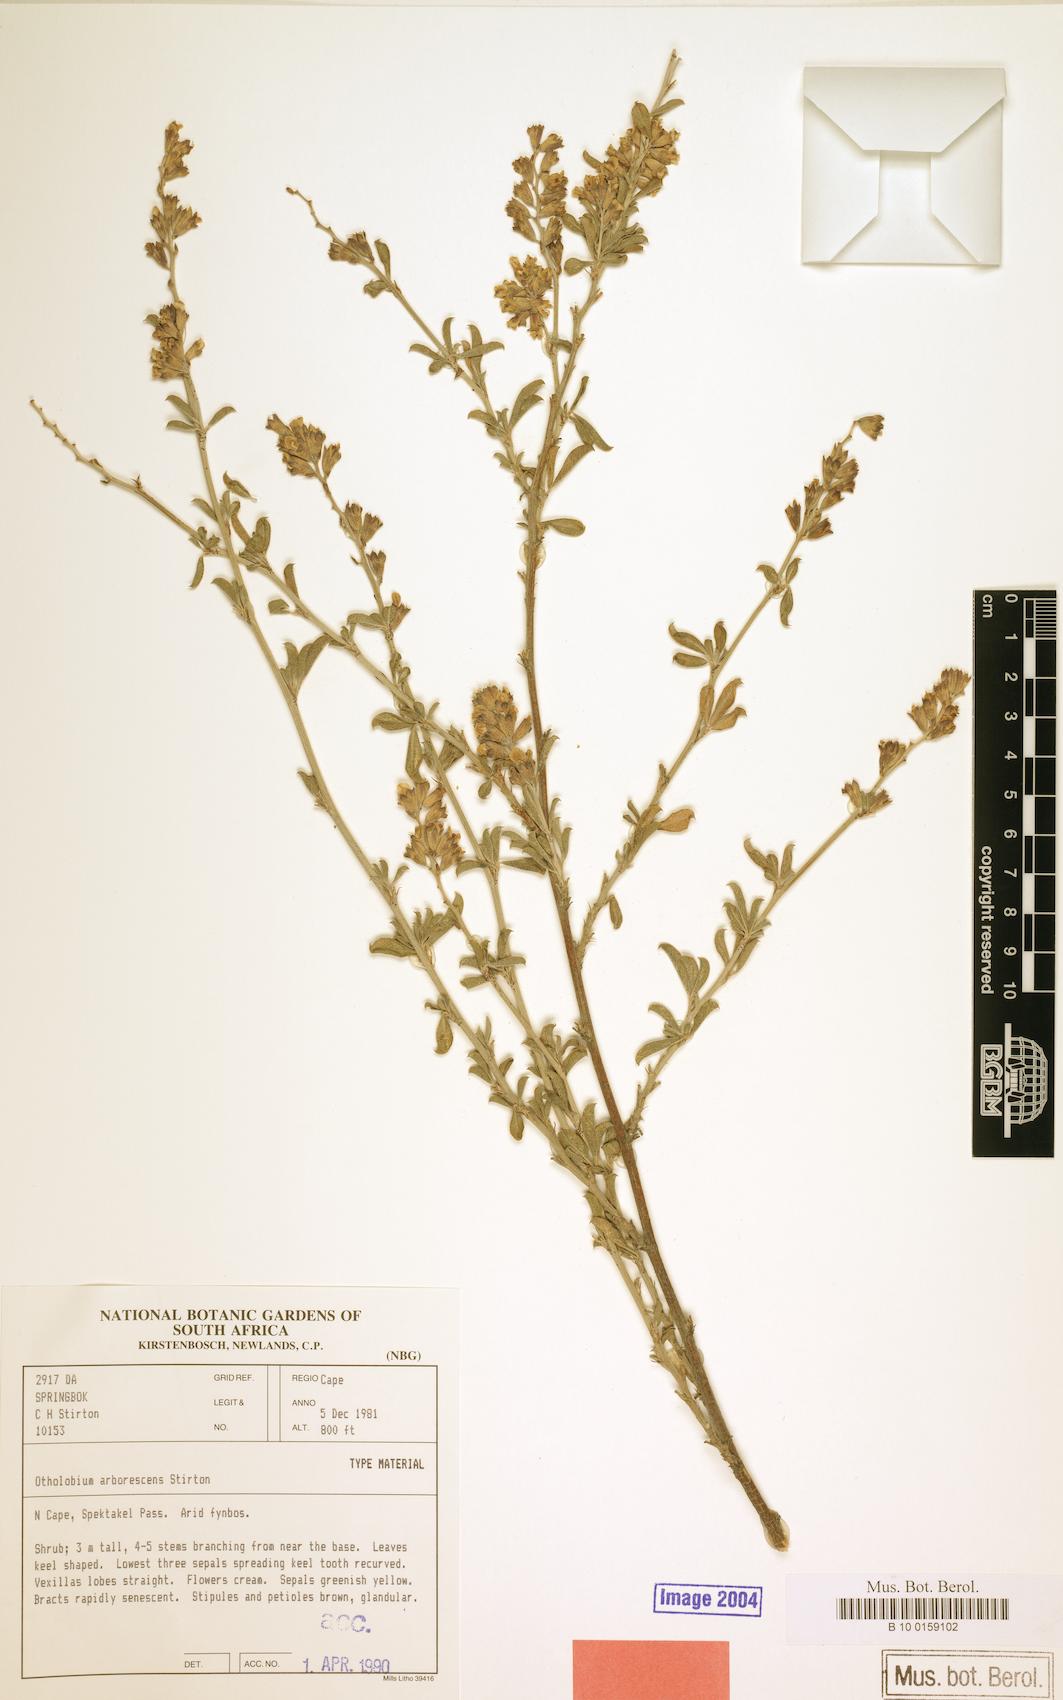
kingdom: Plantae
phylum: Tracheophyta
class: Magnoliopsida
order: Fabales
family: Fabaceae
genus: Psoralea
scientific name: Psoralea arborescens
